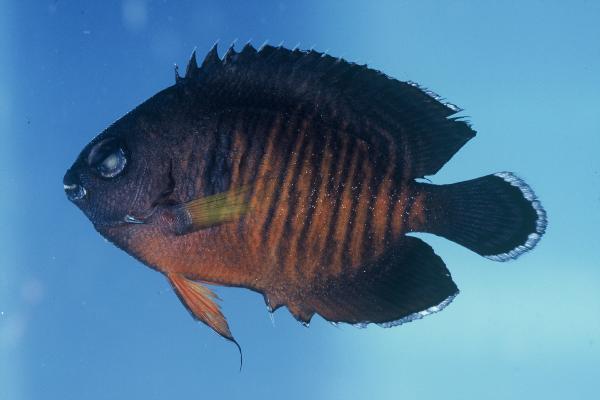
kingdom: Animalia
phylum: Chordata
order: Perciformes
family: Pomacanthidae
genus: Centropyge
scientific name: Centropyge bispinosa
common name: Coral beauty
